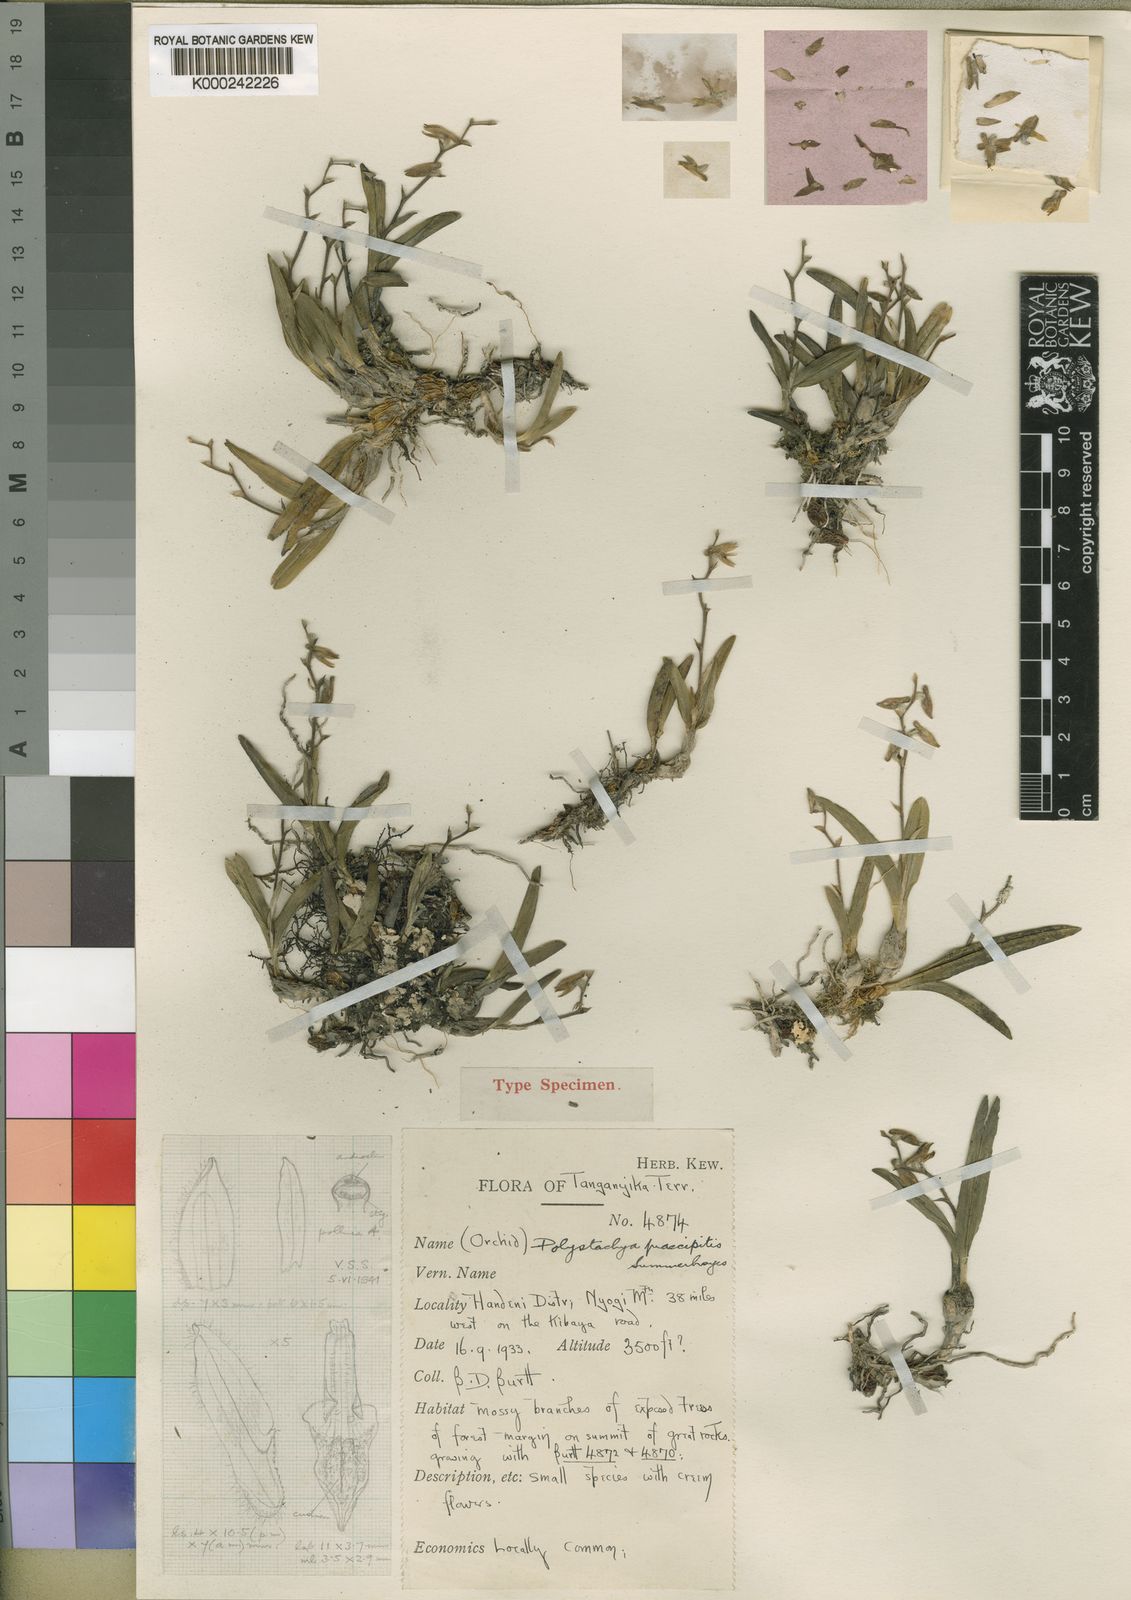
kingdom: Plantae
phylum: Tracheophyta
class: Liliopsida
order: Asparagales
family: Orchidaceae
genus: Polystachya
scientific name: Polystachya praecipitis
